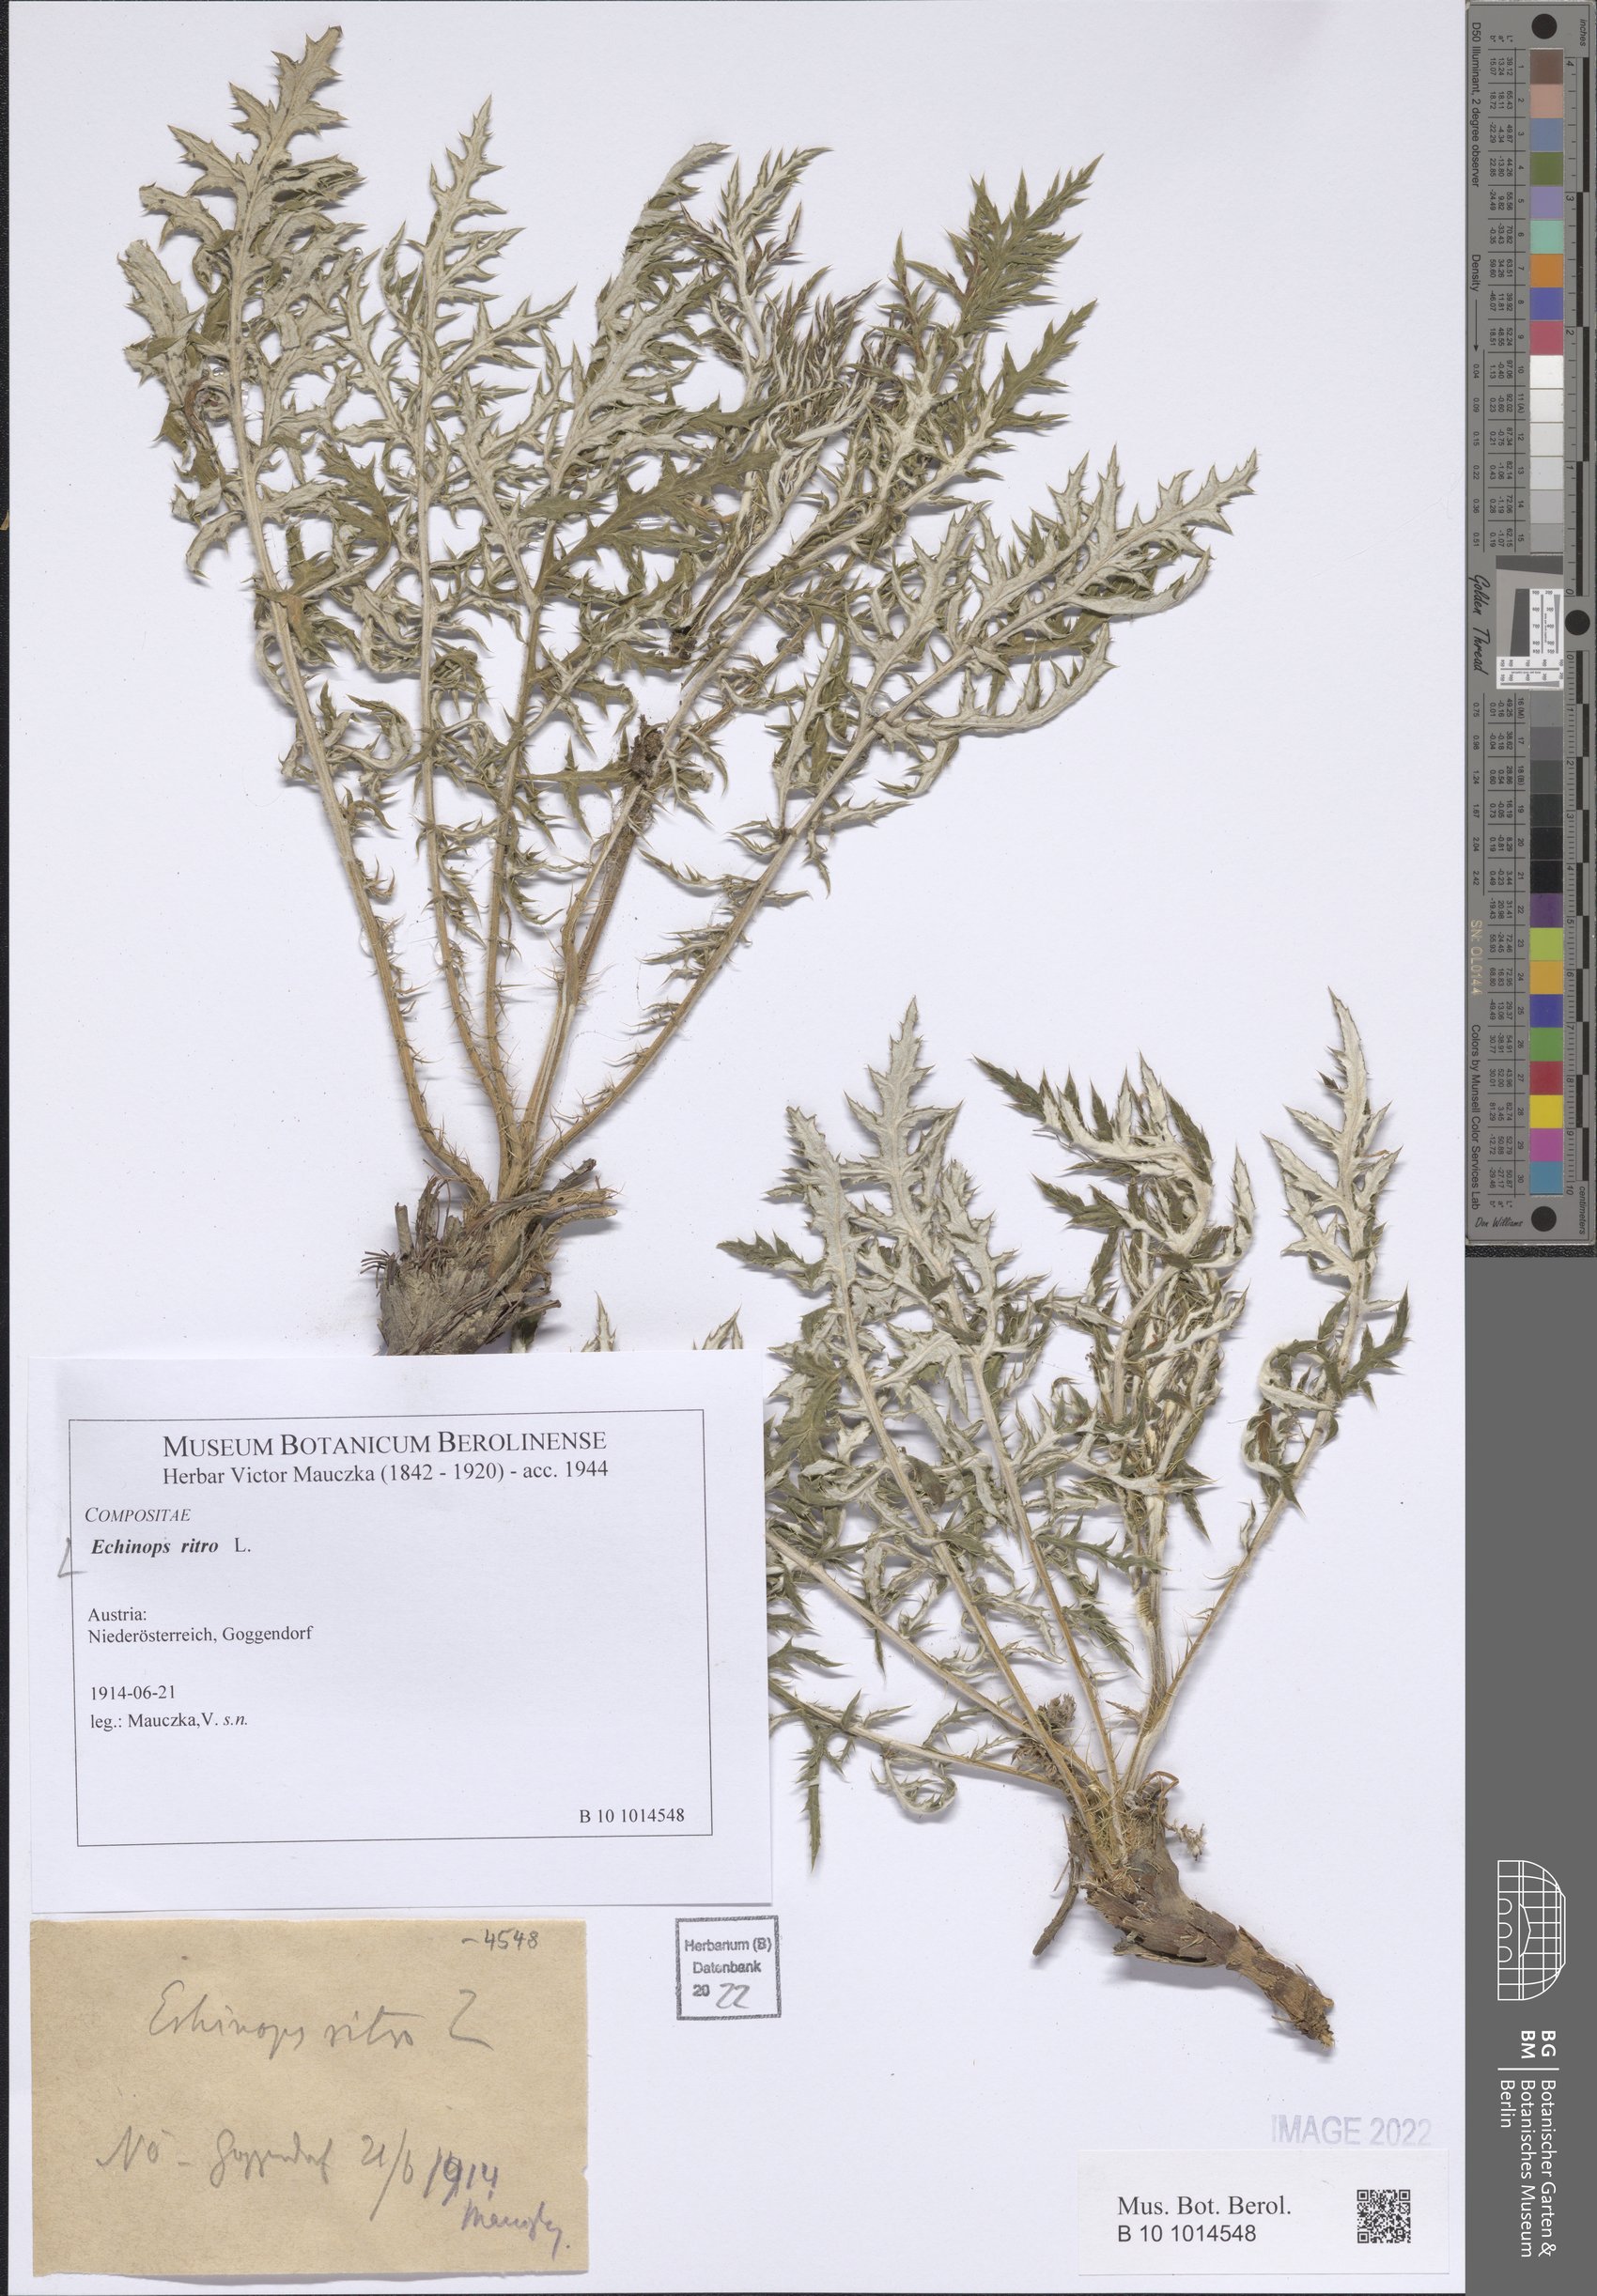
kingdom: Plantae
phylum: Tracheophyta
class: Magnoliopsida
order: Asterales
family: Asteraceae
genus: Echinops
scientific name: Echinops ritro
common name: Globe thistle
